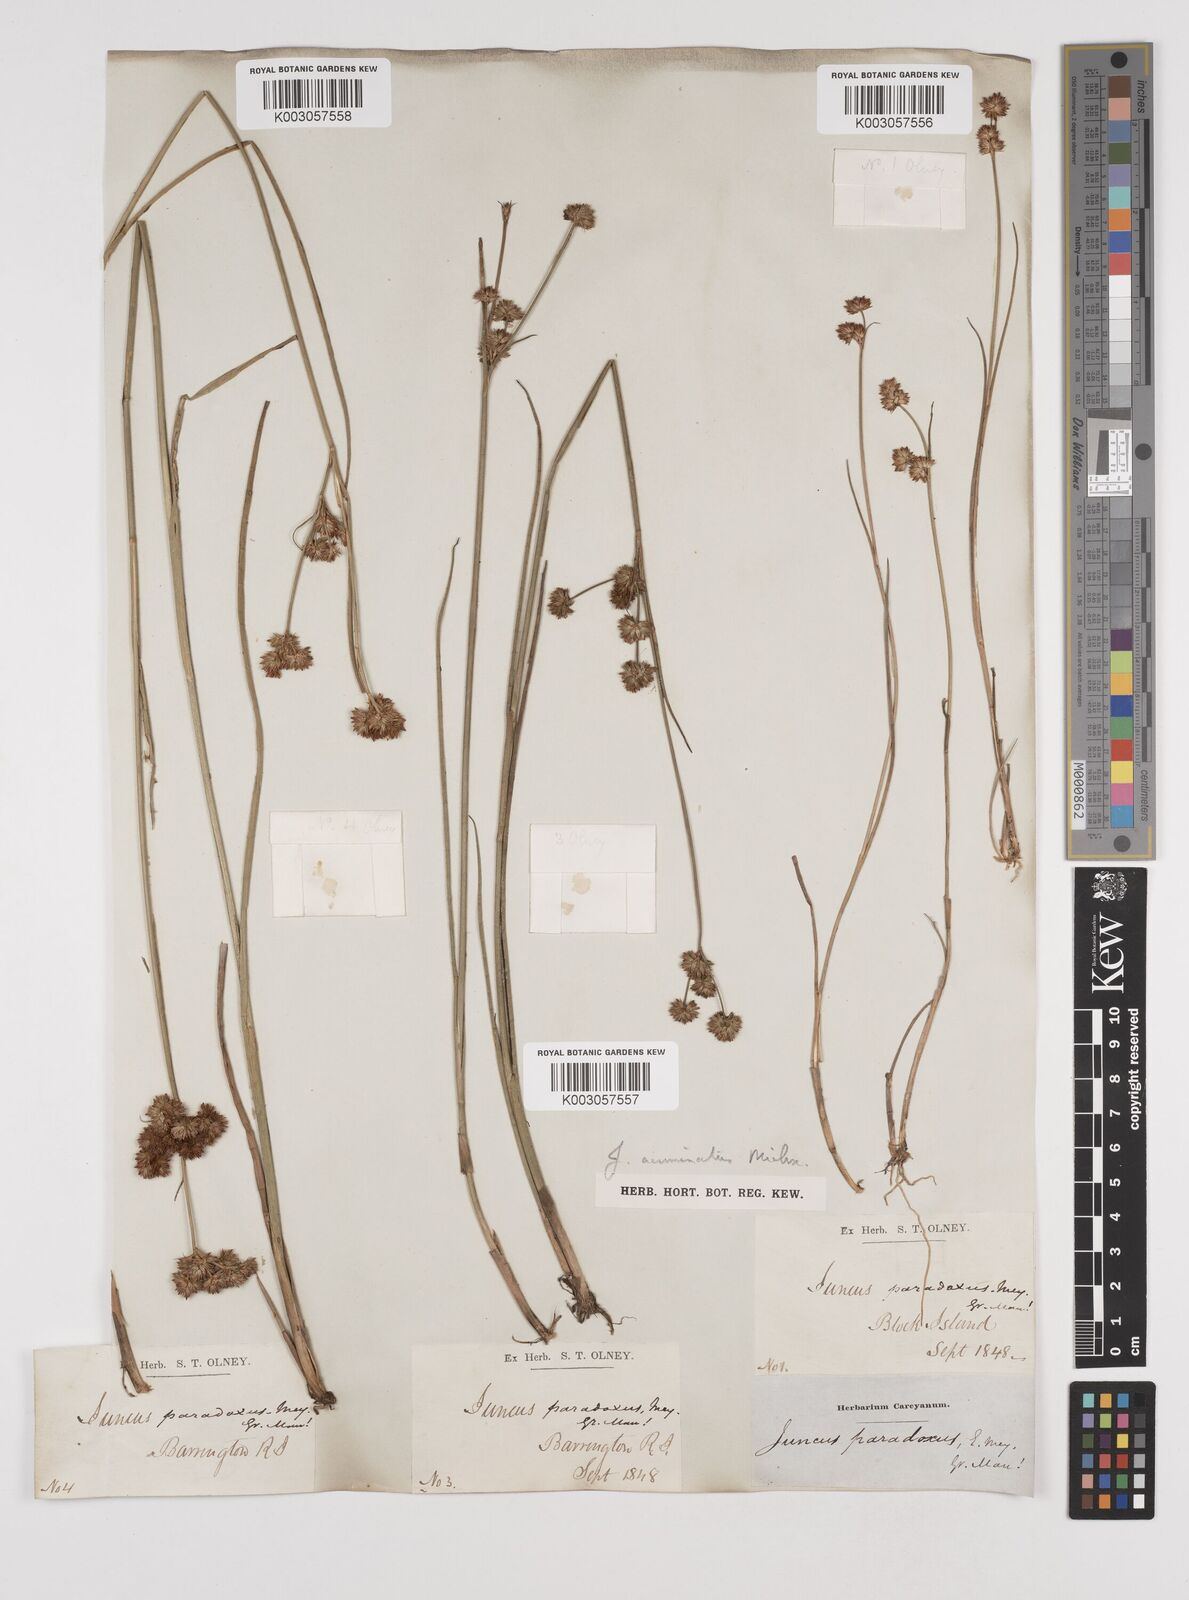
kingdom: Plantae
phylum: Tracheophyta
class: Liliopsida
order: Poales
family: Juncaceae
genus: Juncus
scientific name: Juncus acuminatus
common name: Knotty-leaved rush
